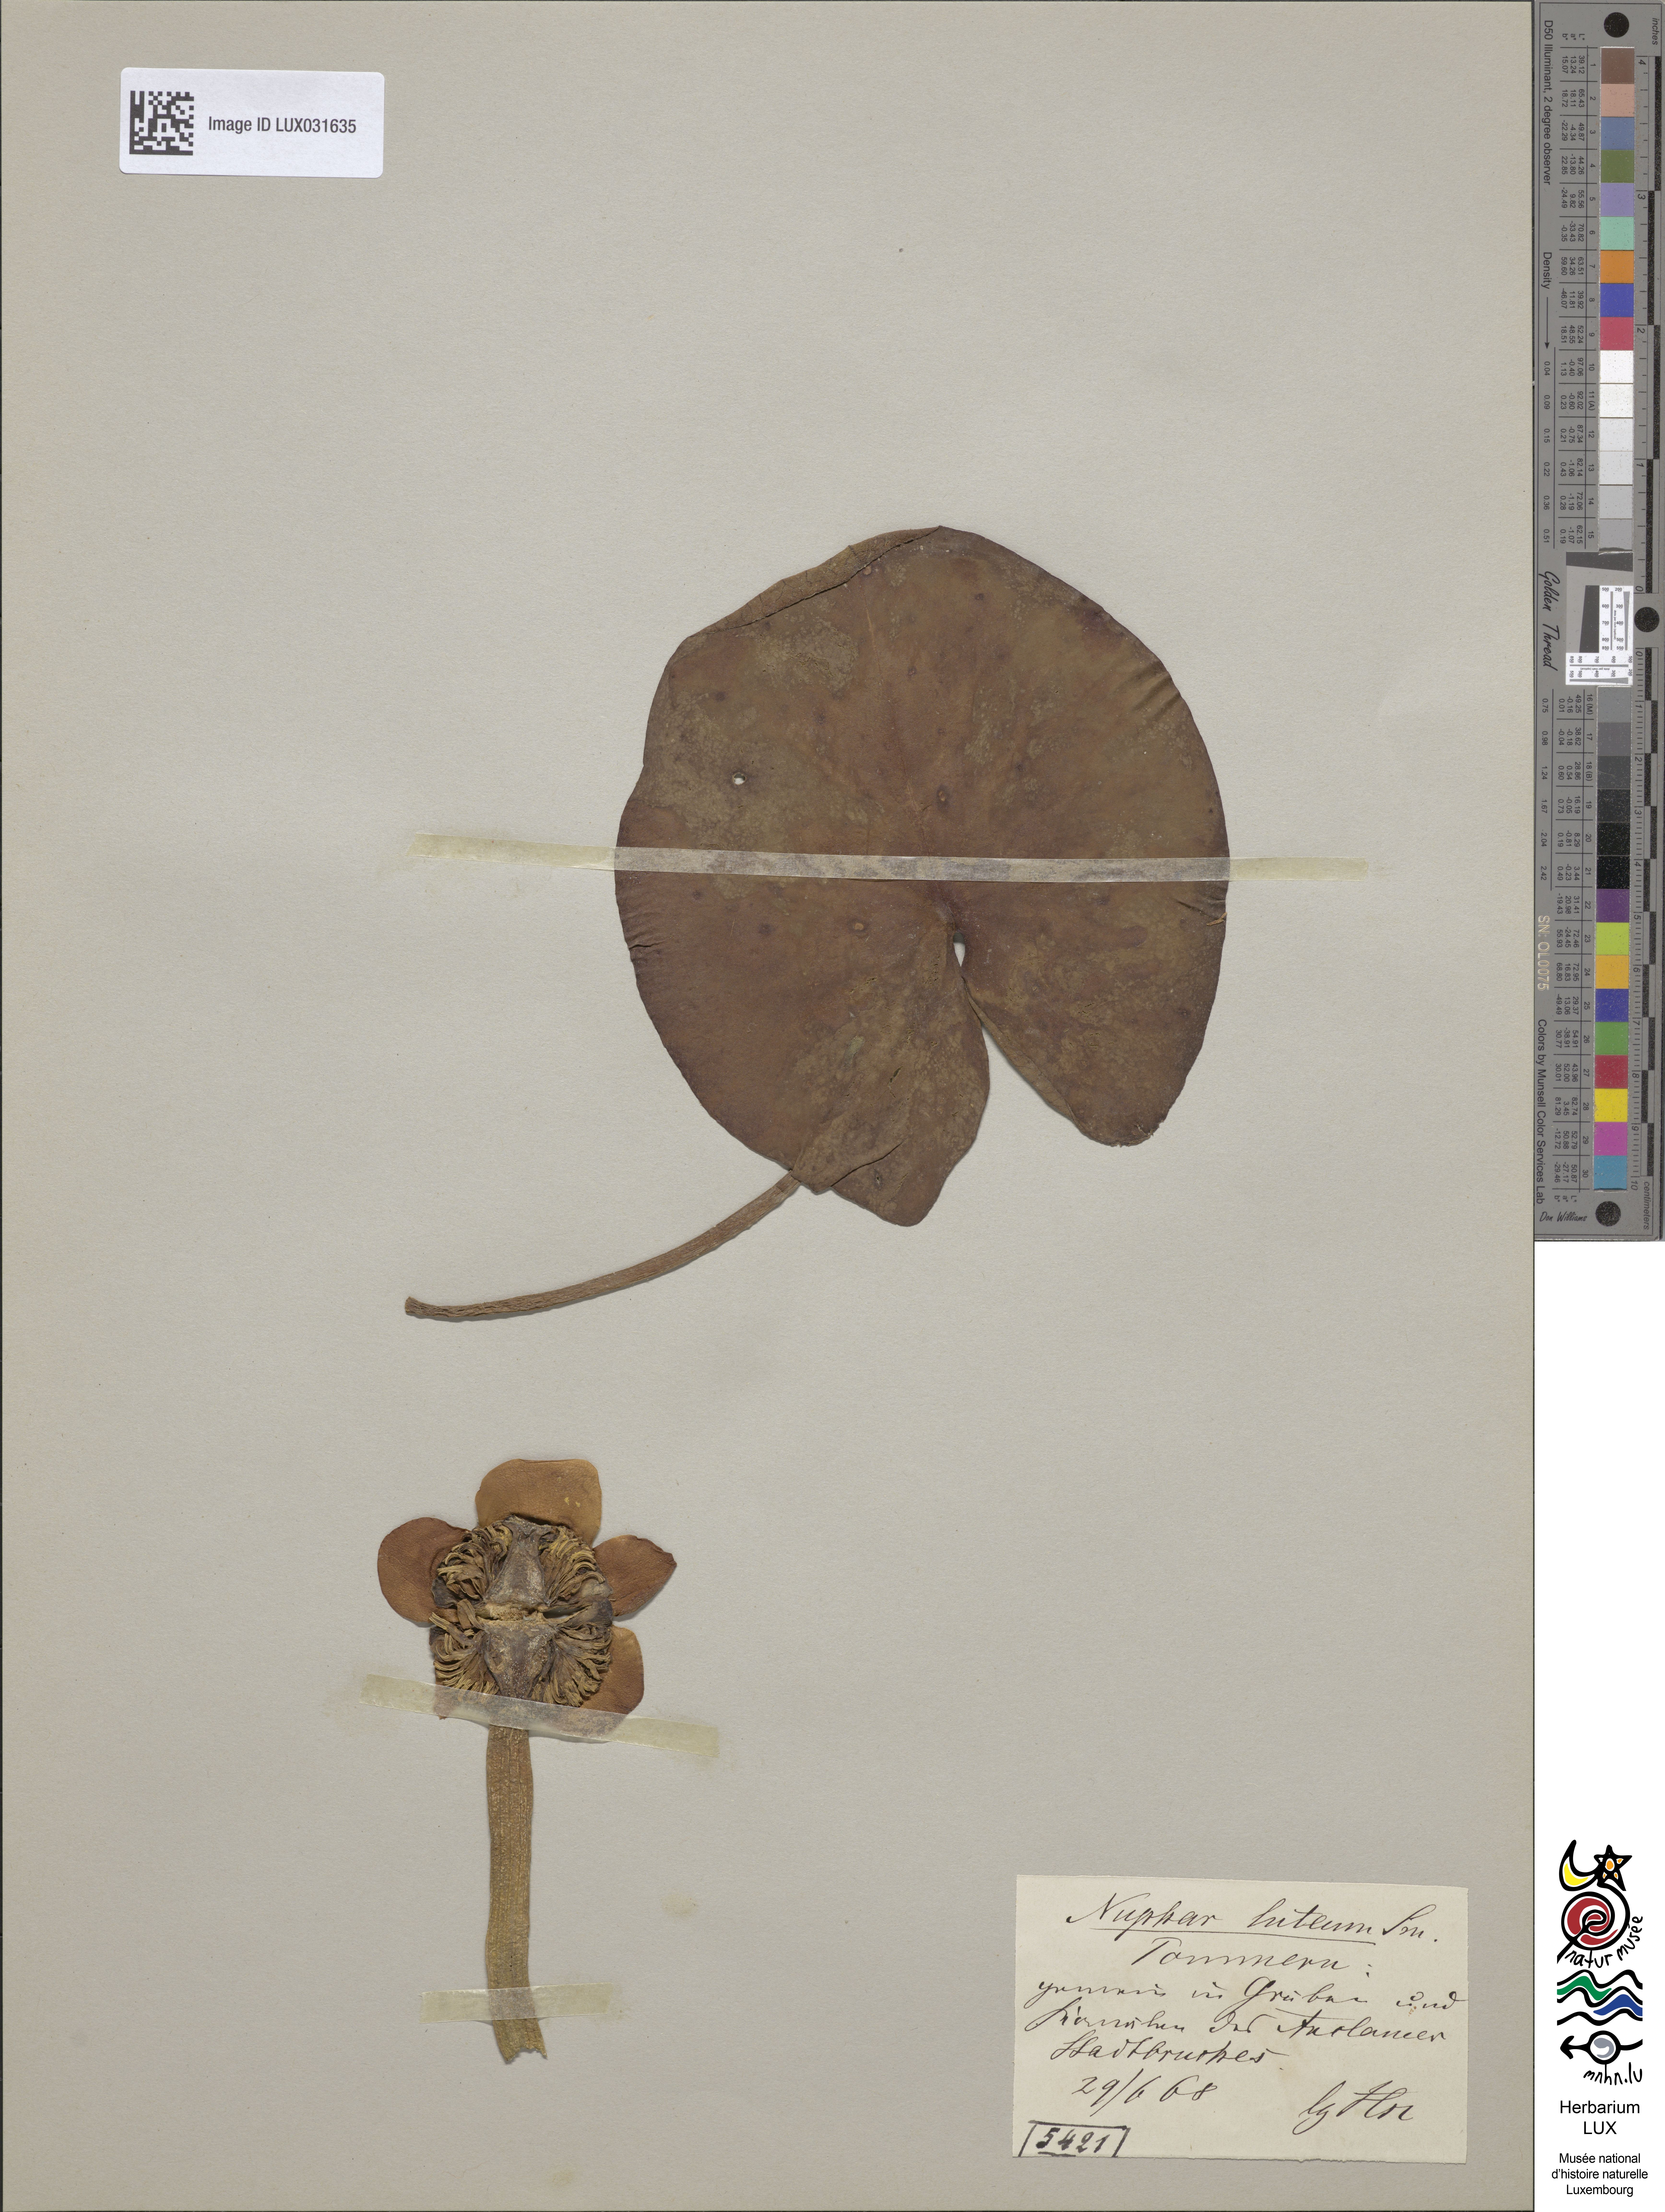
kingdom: Plantae
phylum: Tracheophyta
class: Magnoliopsida
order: Nymphaeales
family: Nymphaeaceae
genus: Nuphar
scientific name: Nuphar lutea
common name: Yellow water-lily
